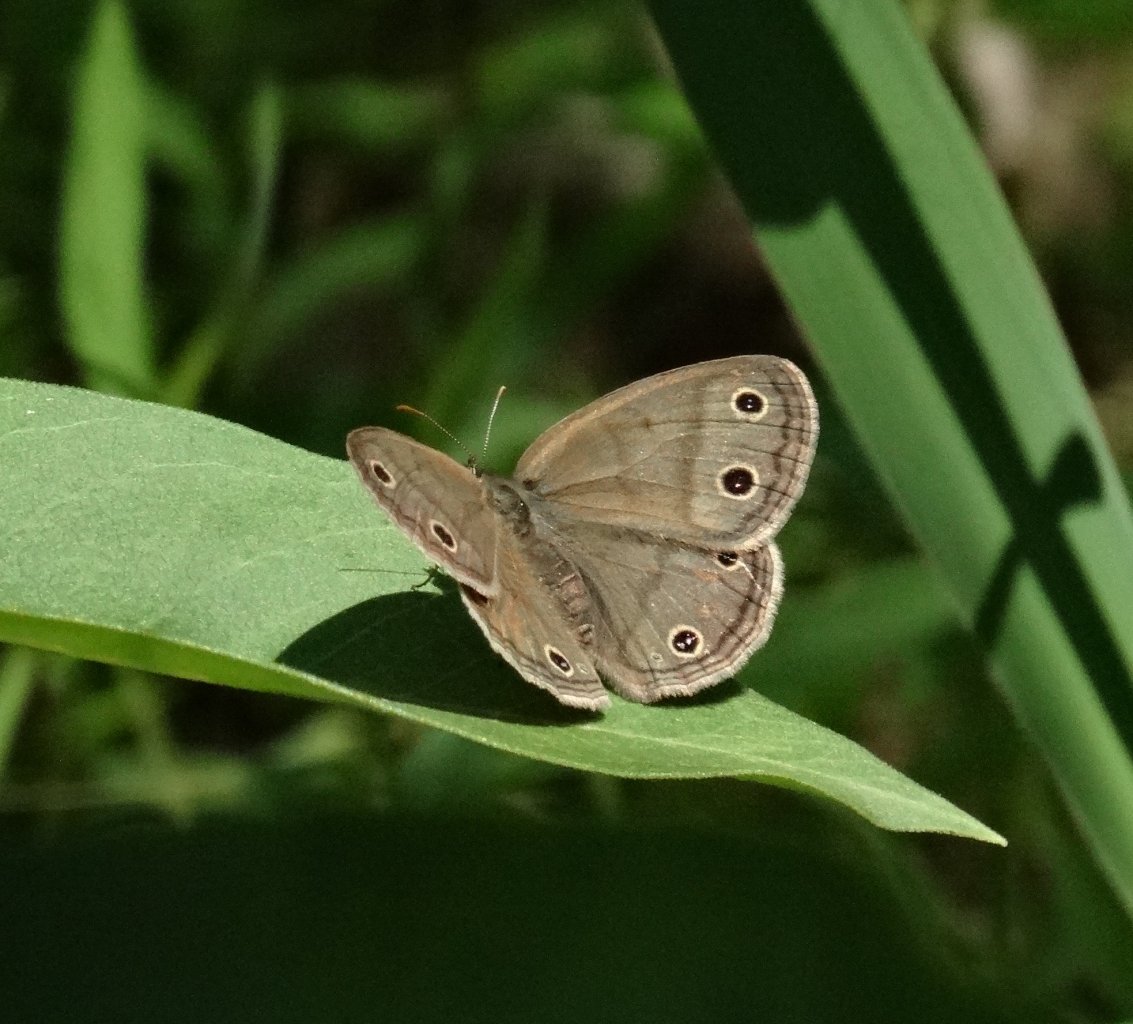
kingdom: Animalia
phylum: Arthropoda
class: Insecta
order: Lepidoptera
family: Nymphalidae
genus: Euptychia
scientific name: Euptychia cymela
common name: Little Wood Satyr
